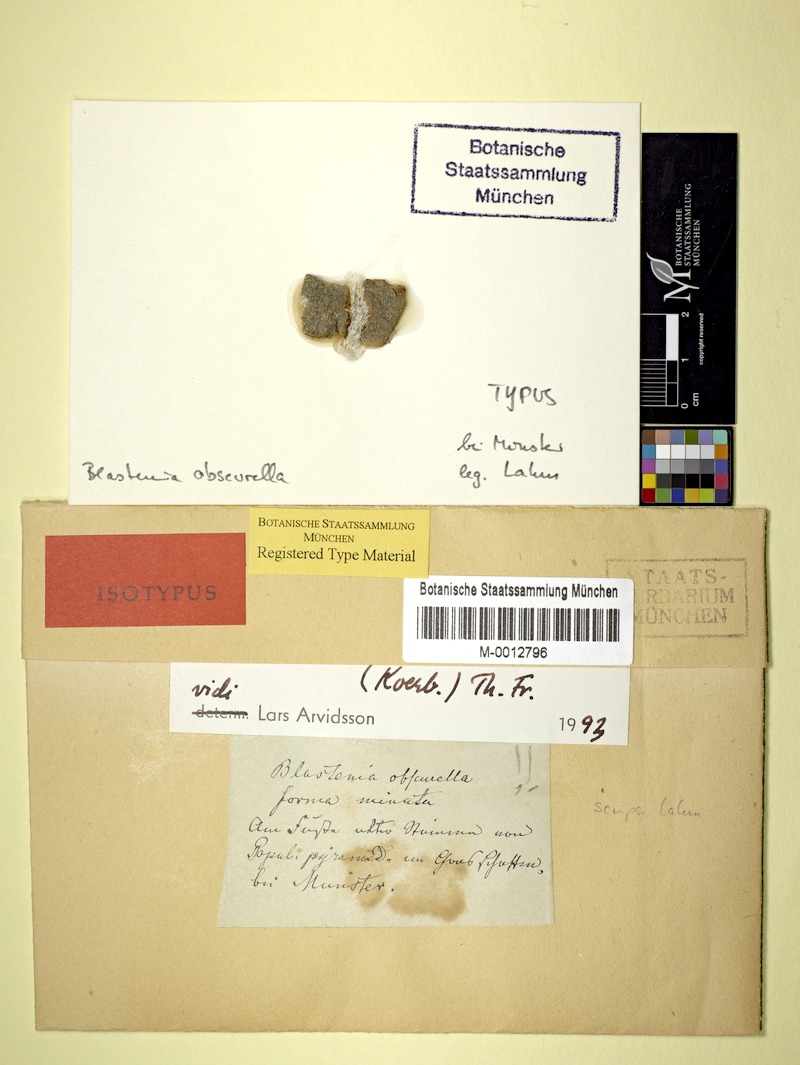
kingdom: Fungi
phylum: Ascomycota
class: Lecanoromycetes
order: Teloschistales
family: Teloschistaceae
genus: Caloplaca
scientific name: Caloplaca obscurella
